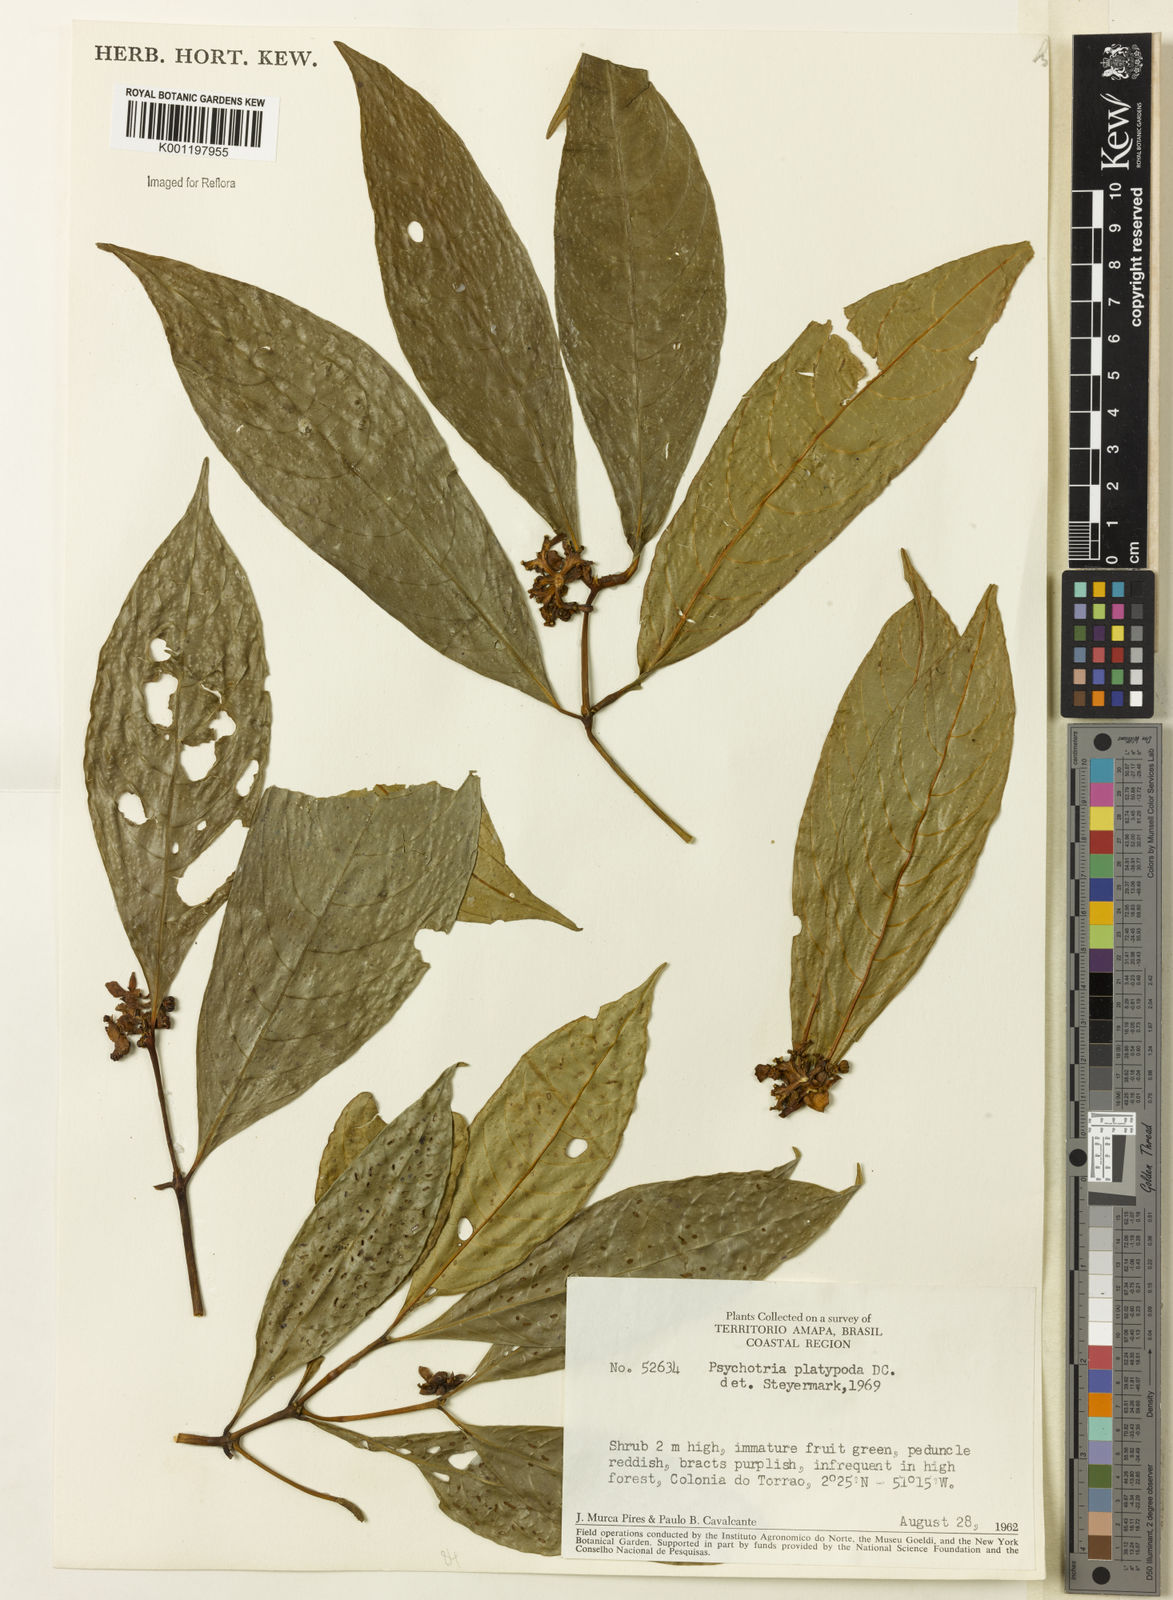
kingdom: Plantae
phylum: Tracheophyta
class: Magnoliopsida
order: Gentianales
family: Rubiaceae
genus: Palicourea
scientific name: Palicourea dichotoma
